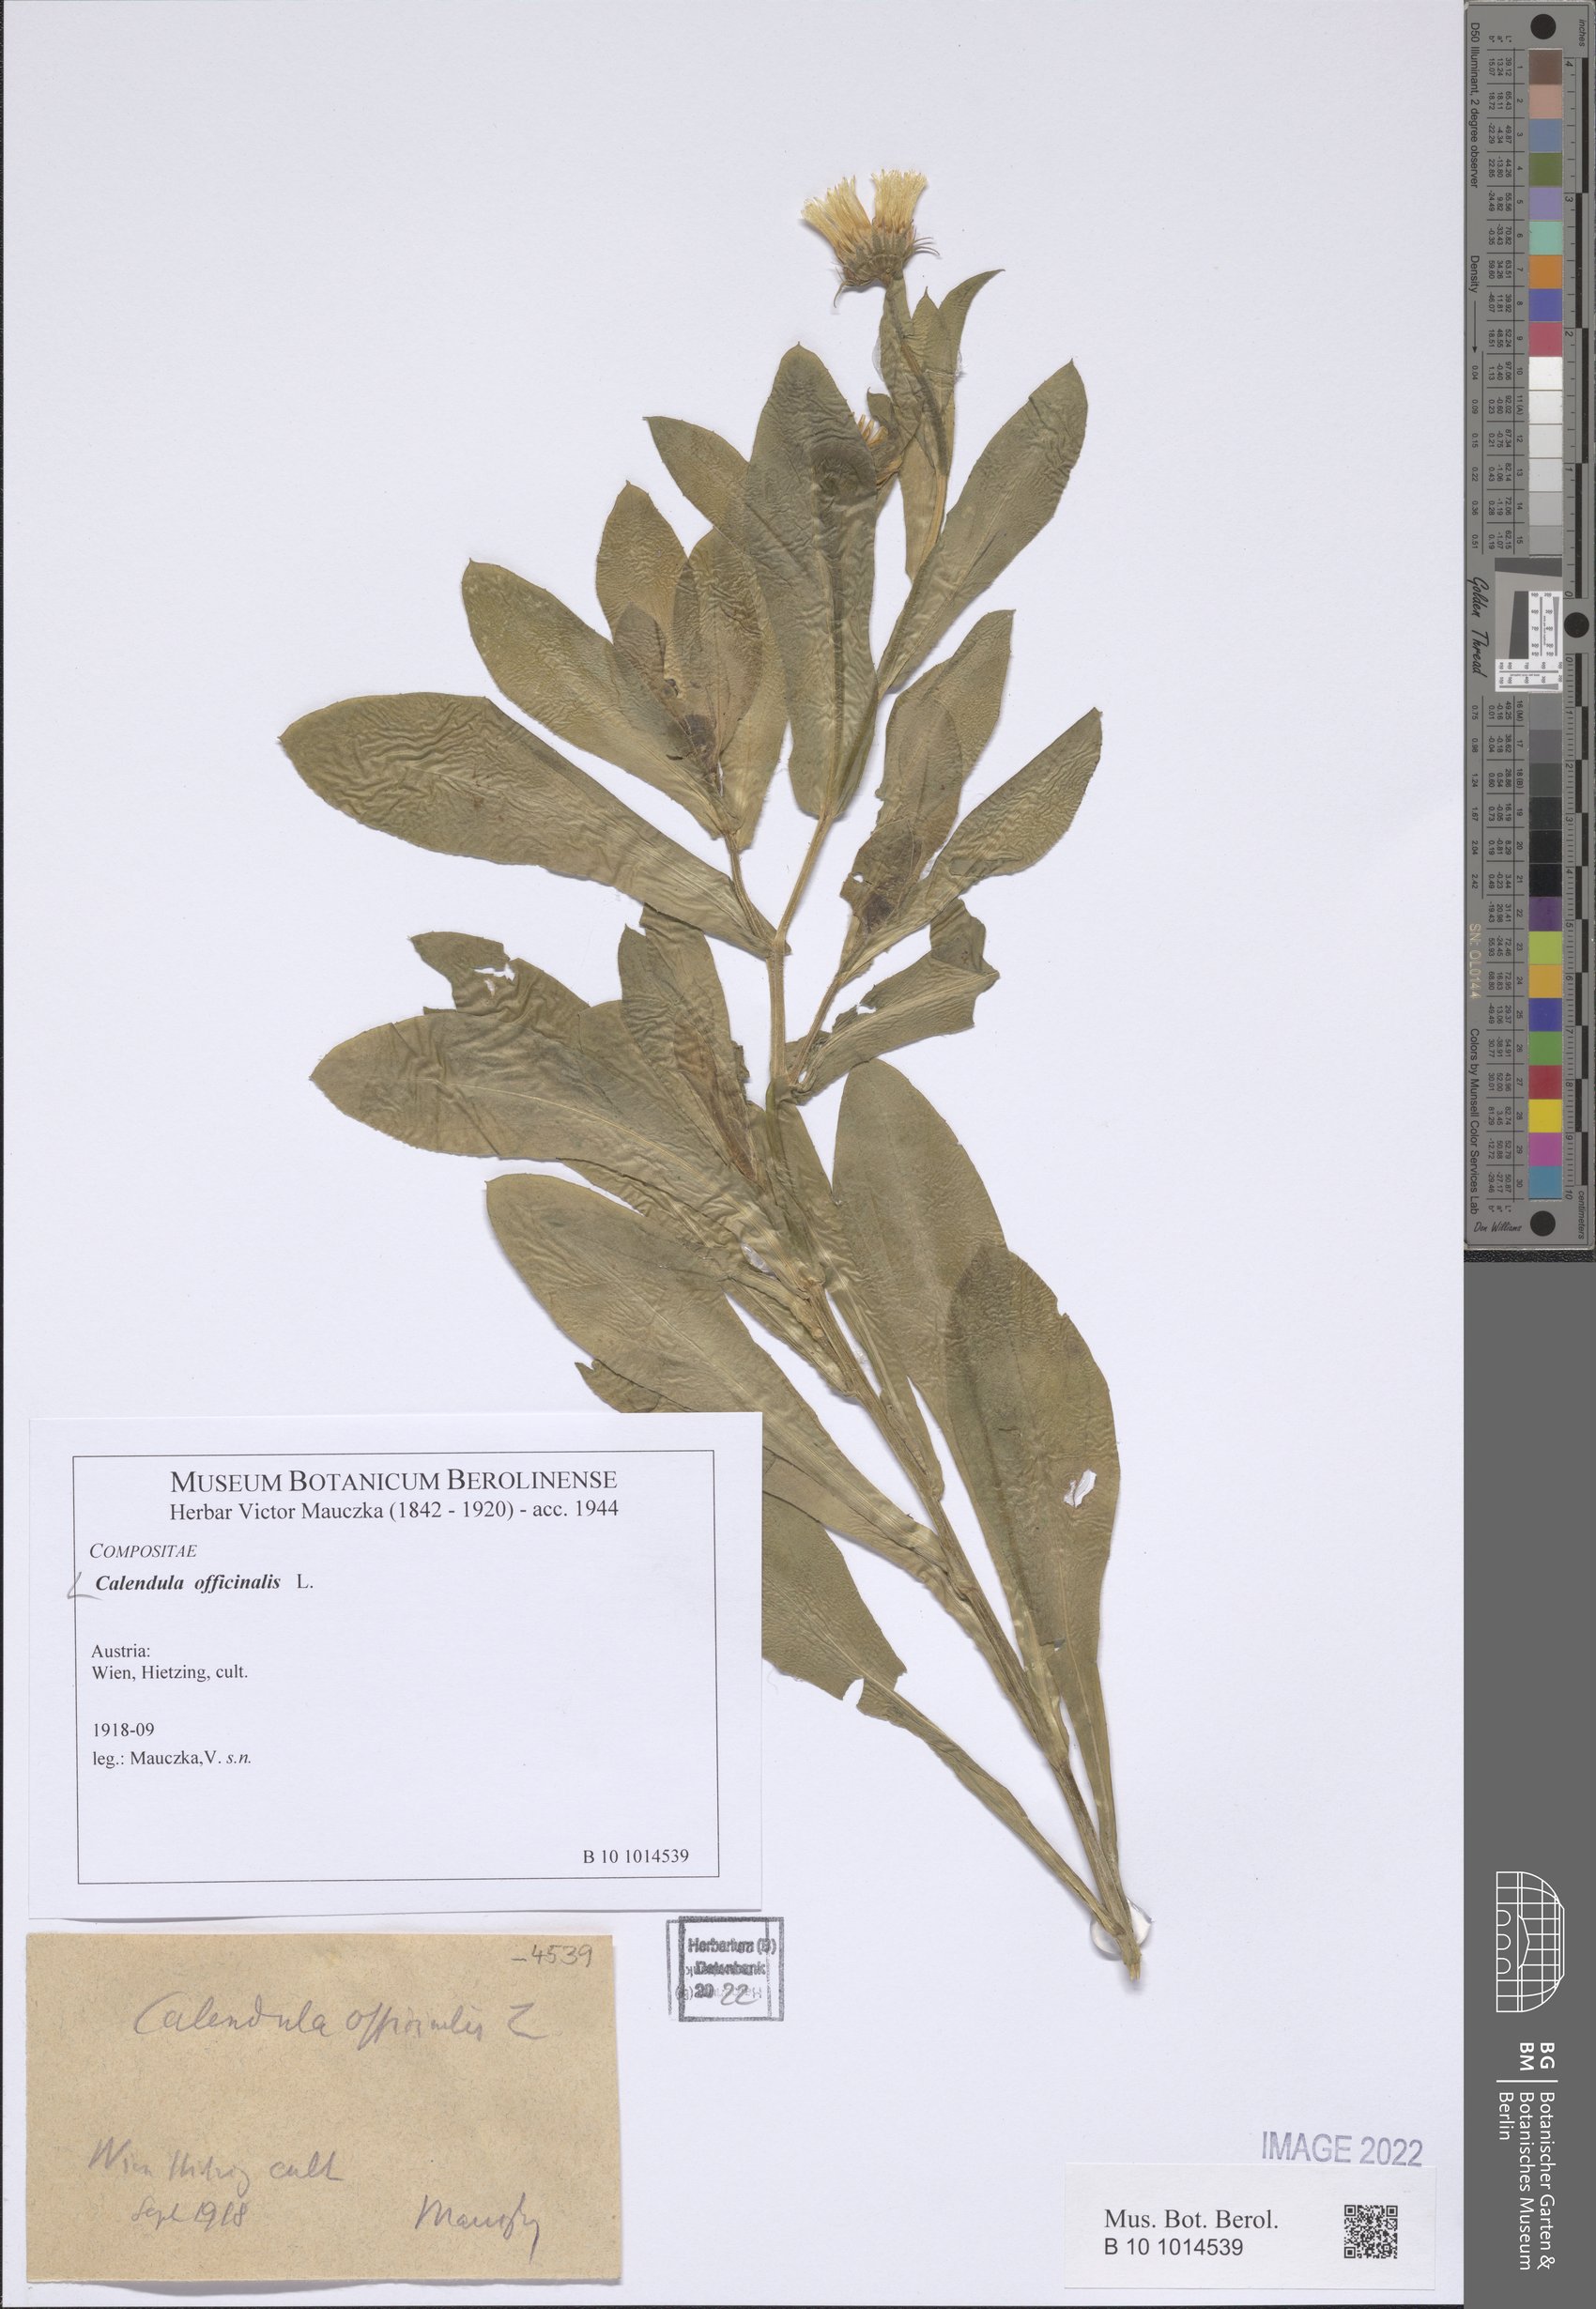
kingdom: Plantae
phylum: Tracheophyta
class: Magnoliopsida
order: Asterales
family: Asteraceae
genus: Calendula
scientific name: Calendula officinalis
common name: Pot marigold
